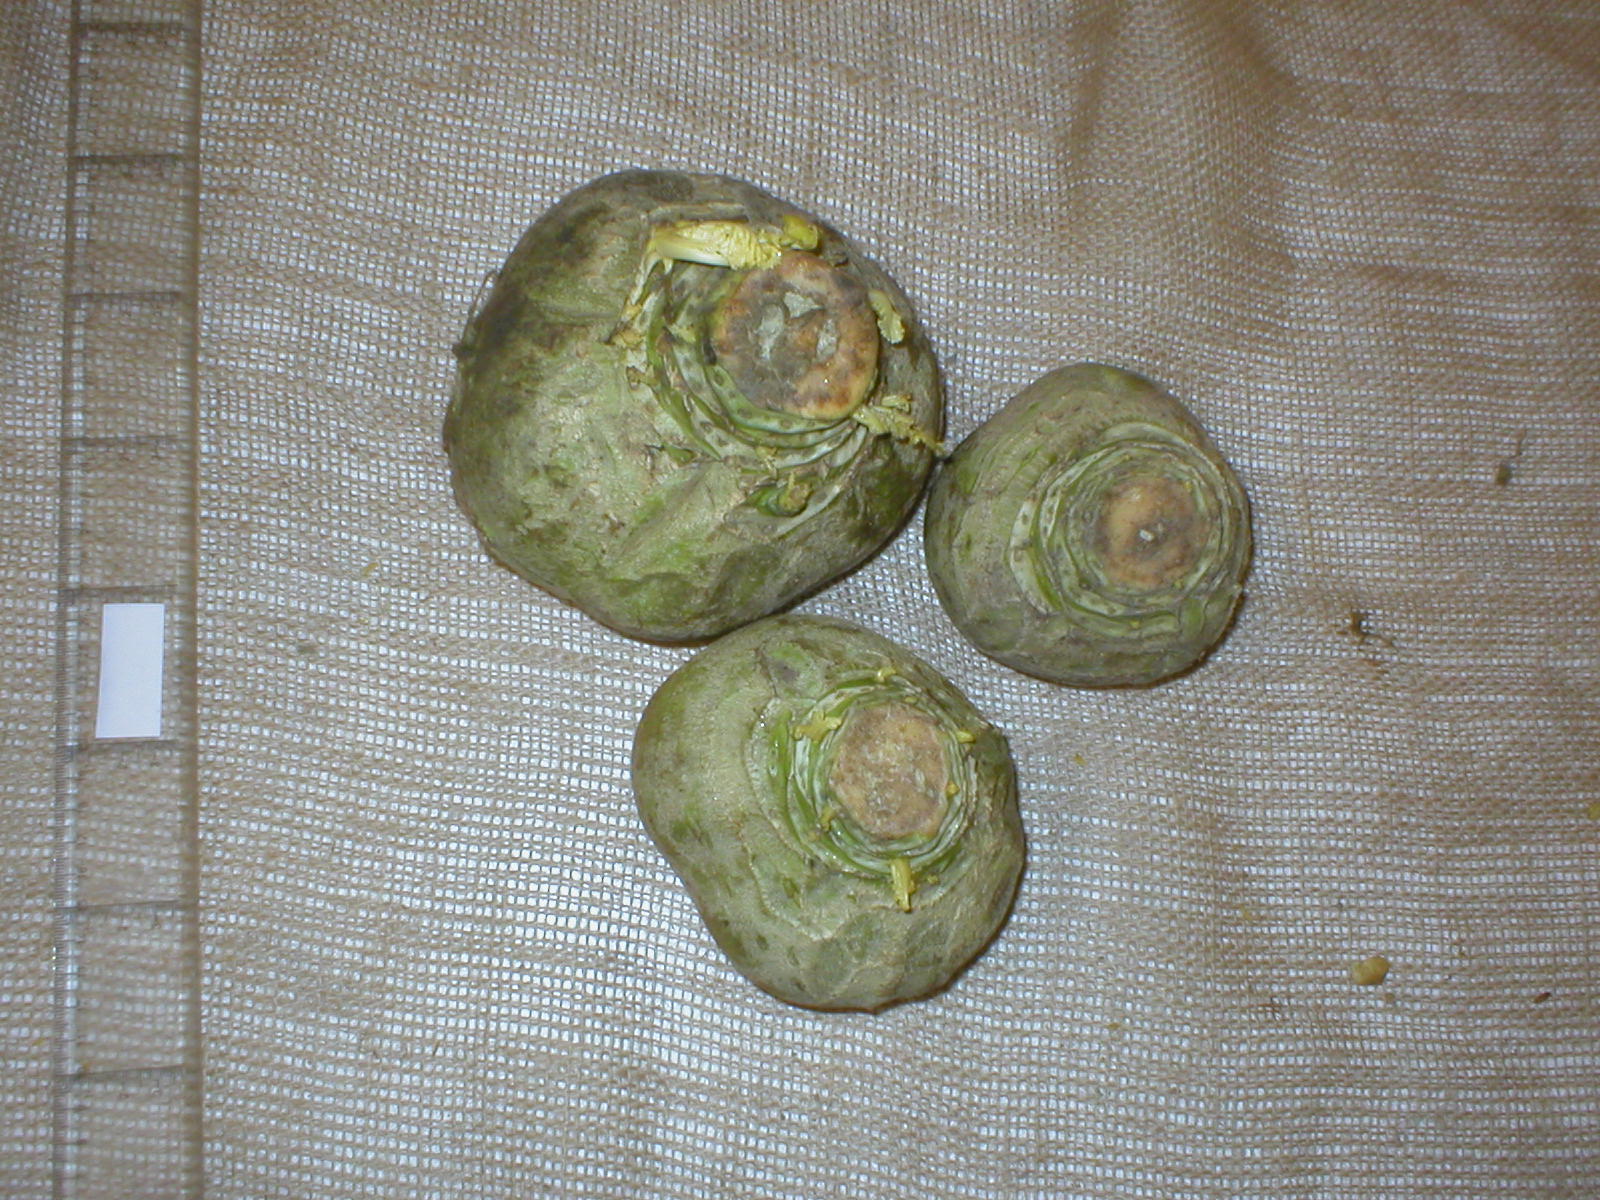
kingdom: Plantae
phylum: Tracheophyta
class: Magnoliopsida
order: Brassicales
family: Brassicaceae
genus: Brassica
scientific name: Brassica napus
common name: Rape
